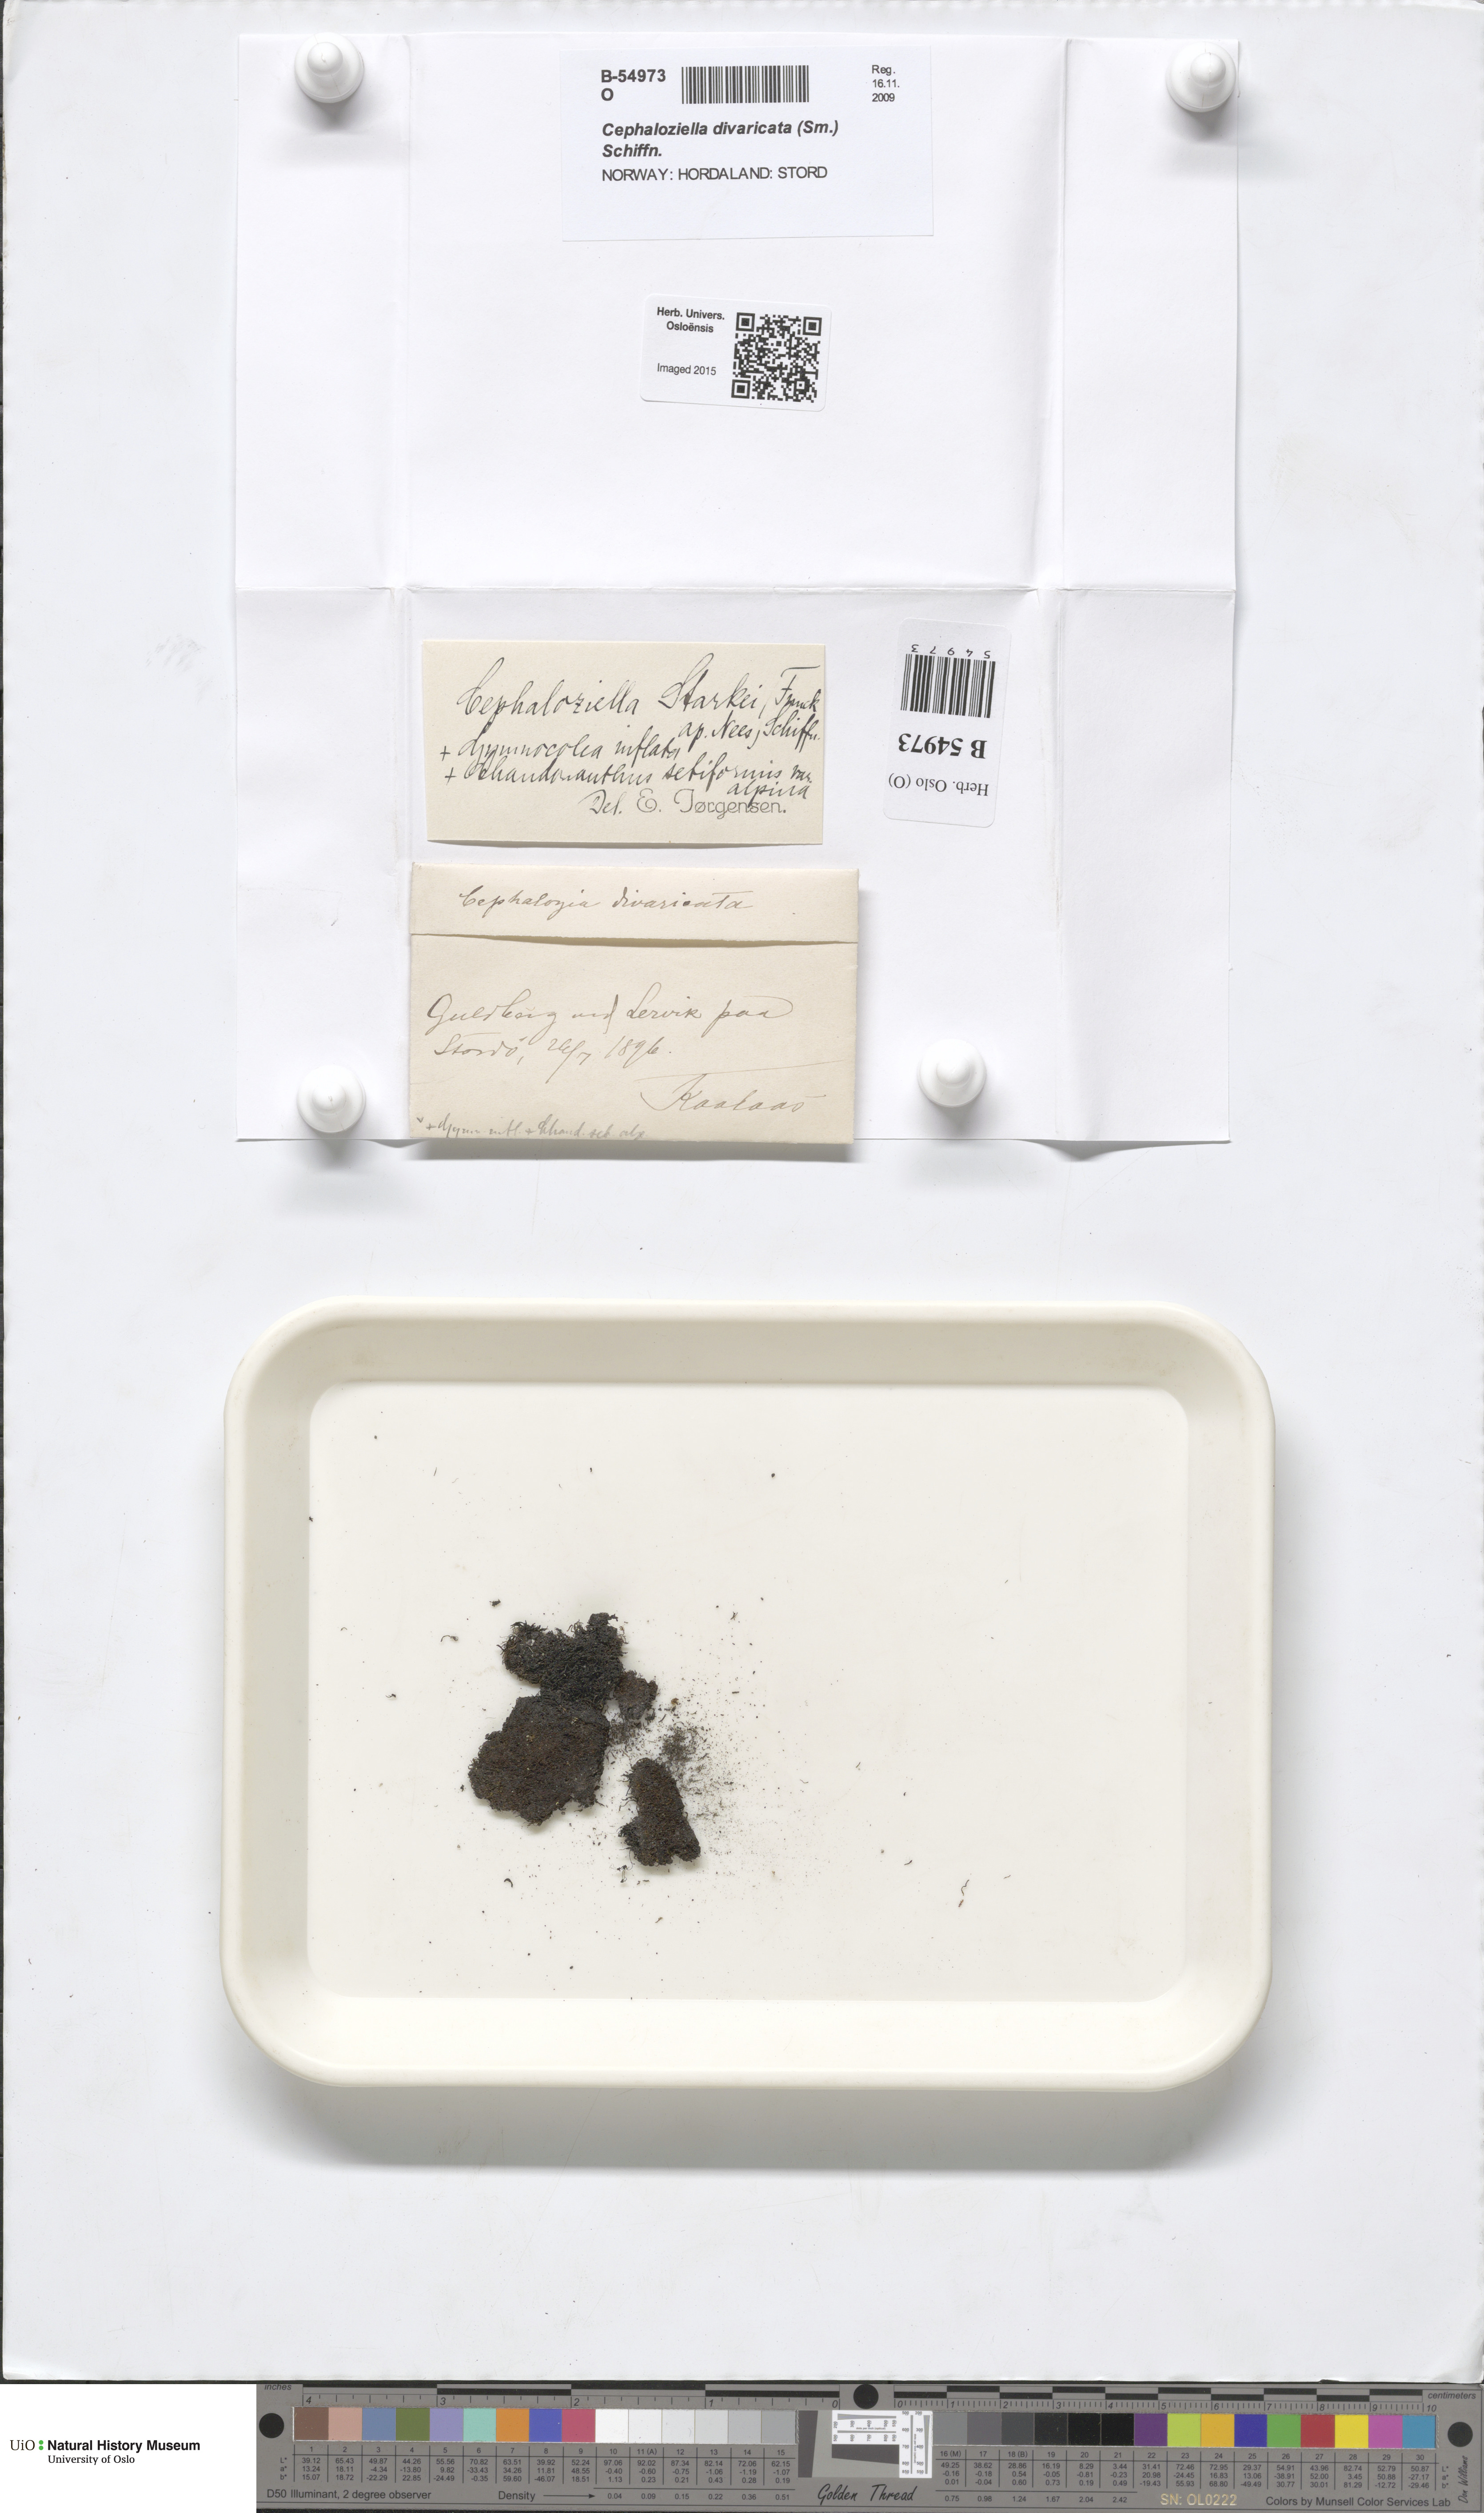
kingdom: Plantae
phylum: Marchantiophyta
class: Jungermanniopsida
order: Jungermanniales
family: Cephaloziellaceae
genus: Cephaloziella
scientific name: Cephaloziella divaricata
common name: Spreading threadwort
